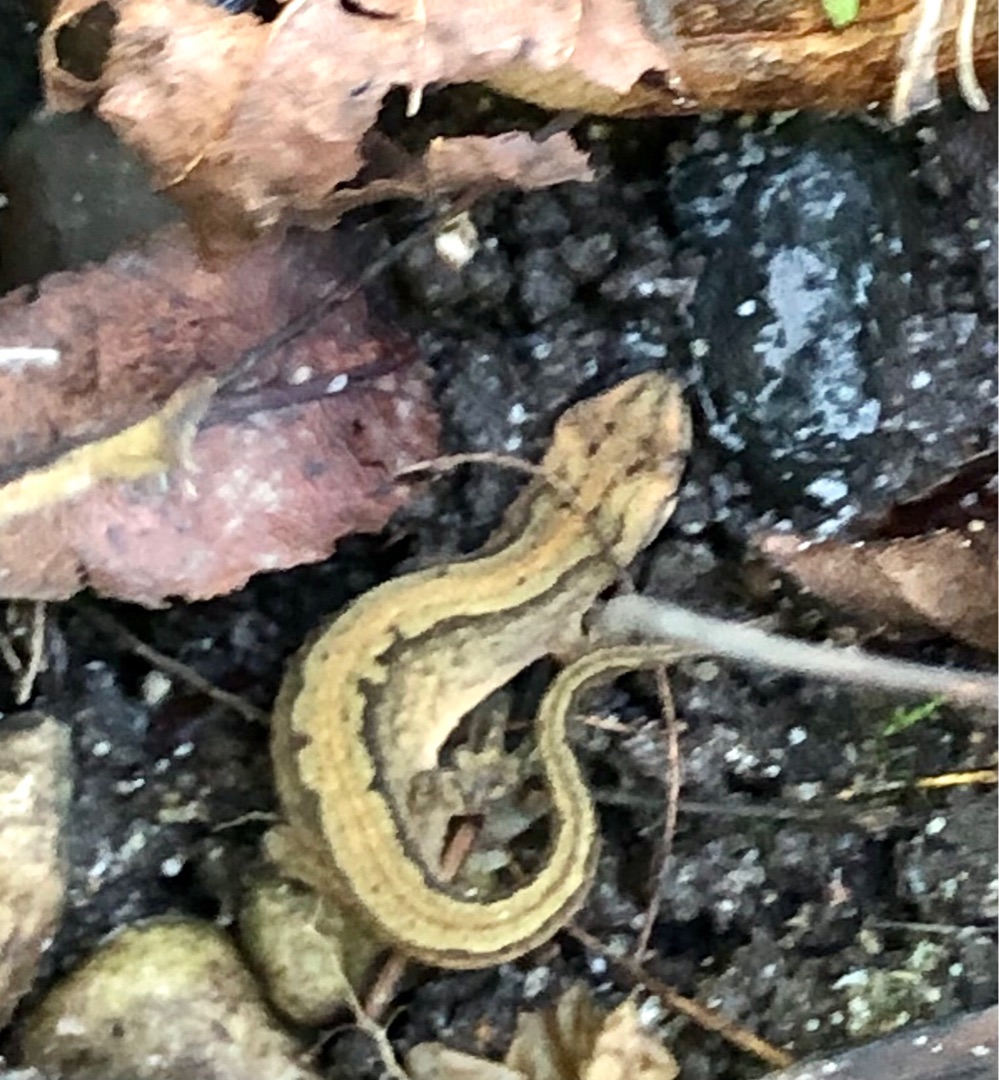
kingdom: Animalia
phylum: Chordata
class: Amphibia
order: Caudata
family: Salamandridae
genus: Lissotriton
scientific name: Lissotriton vulgaris
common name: Lille vandsalamander
